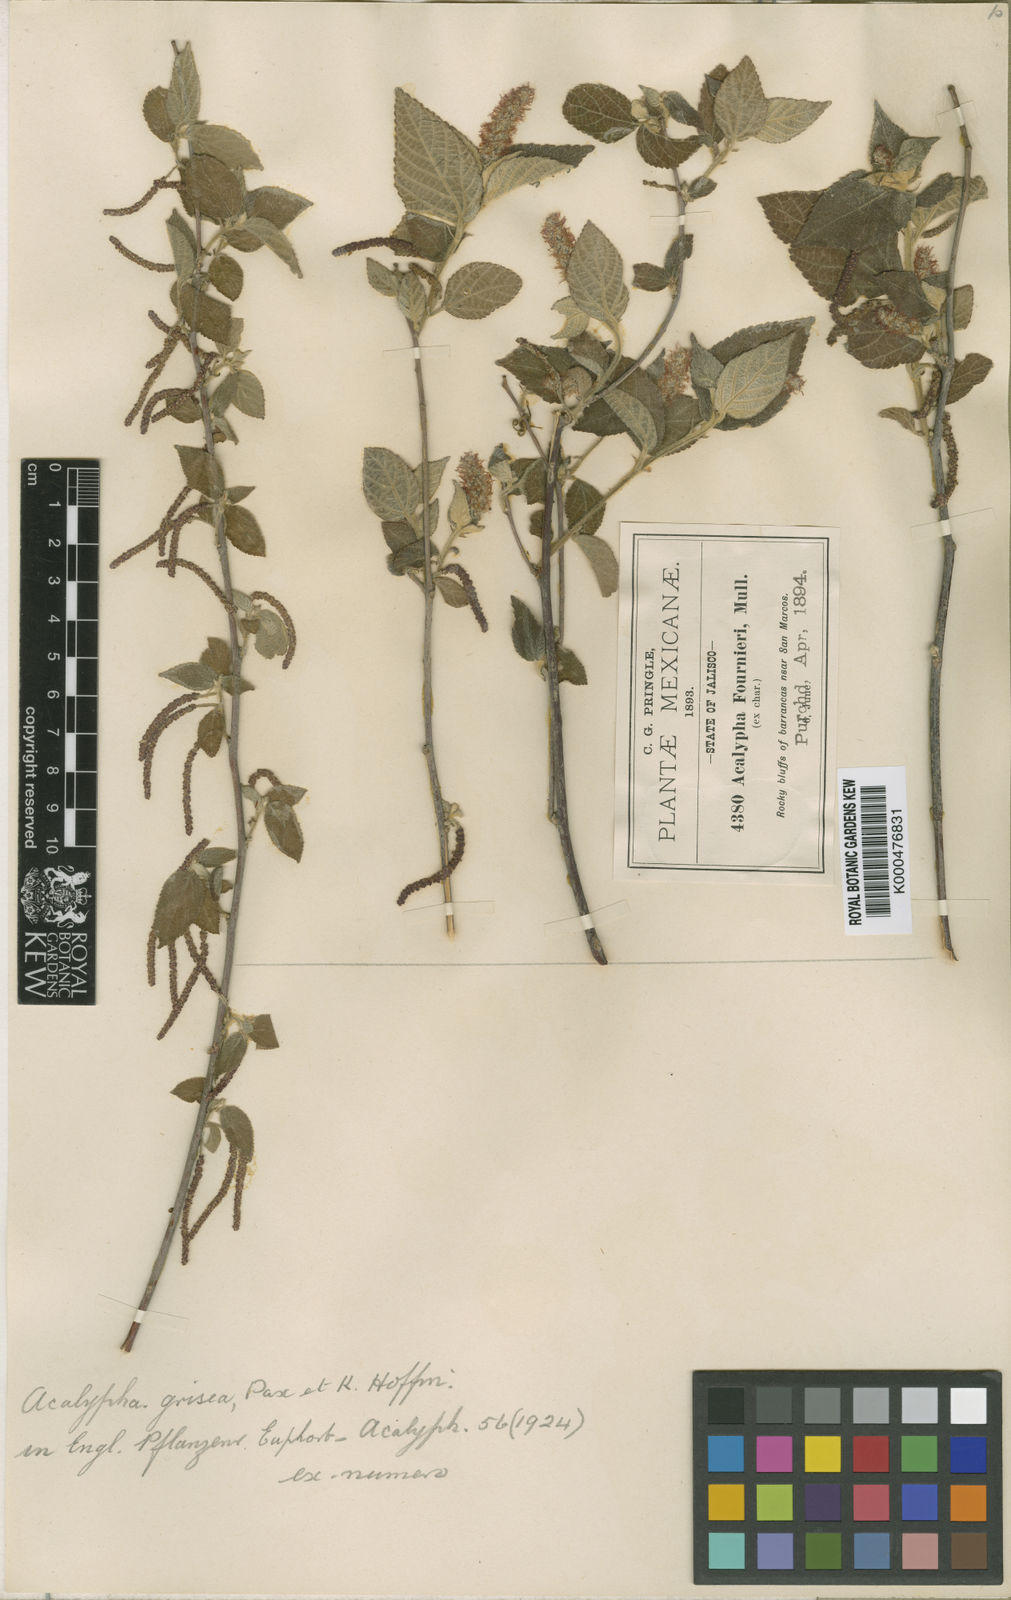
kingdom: Plantae
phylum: Tracheophyta
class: Magnoliopsida
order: Malpighiales
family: Euphorbiaceae
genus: Acalypha
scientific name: Acalypha grisea
